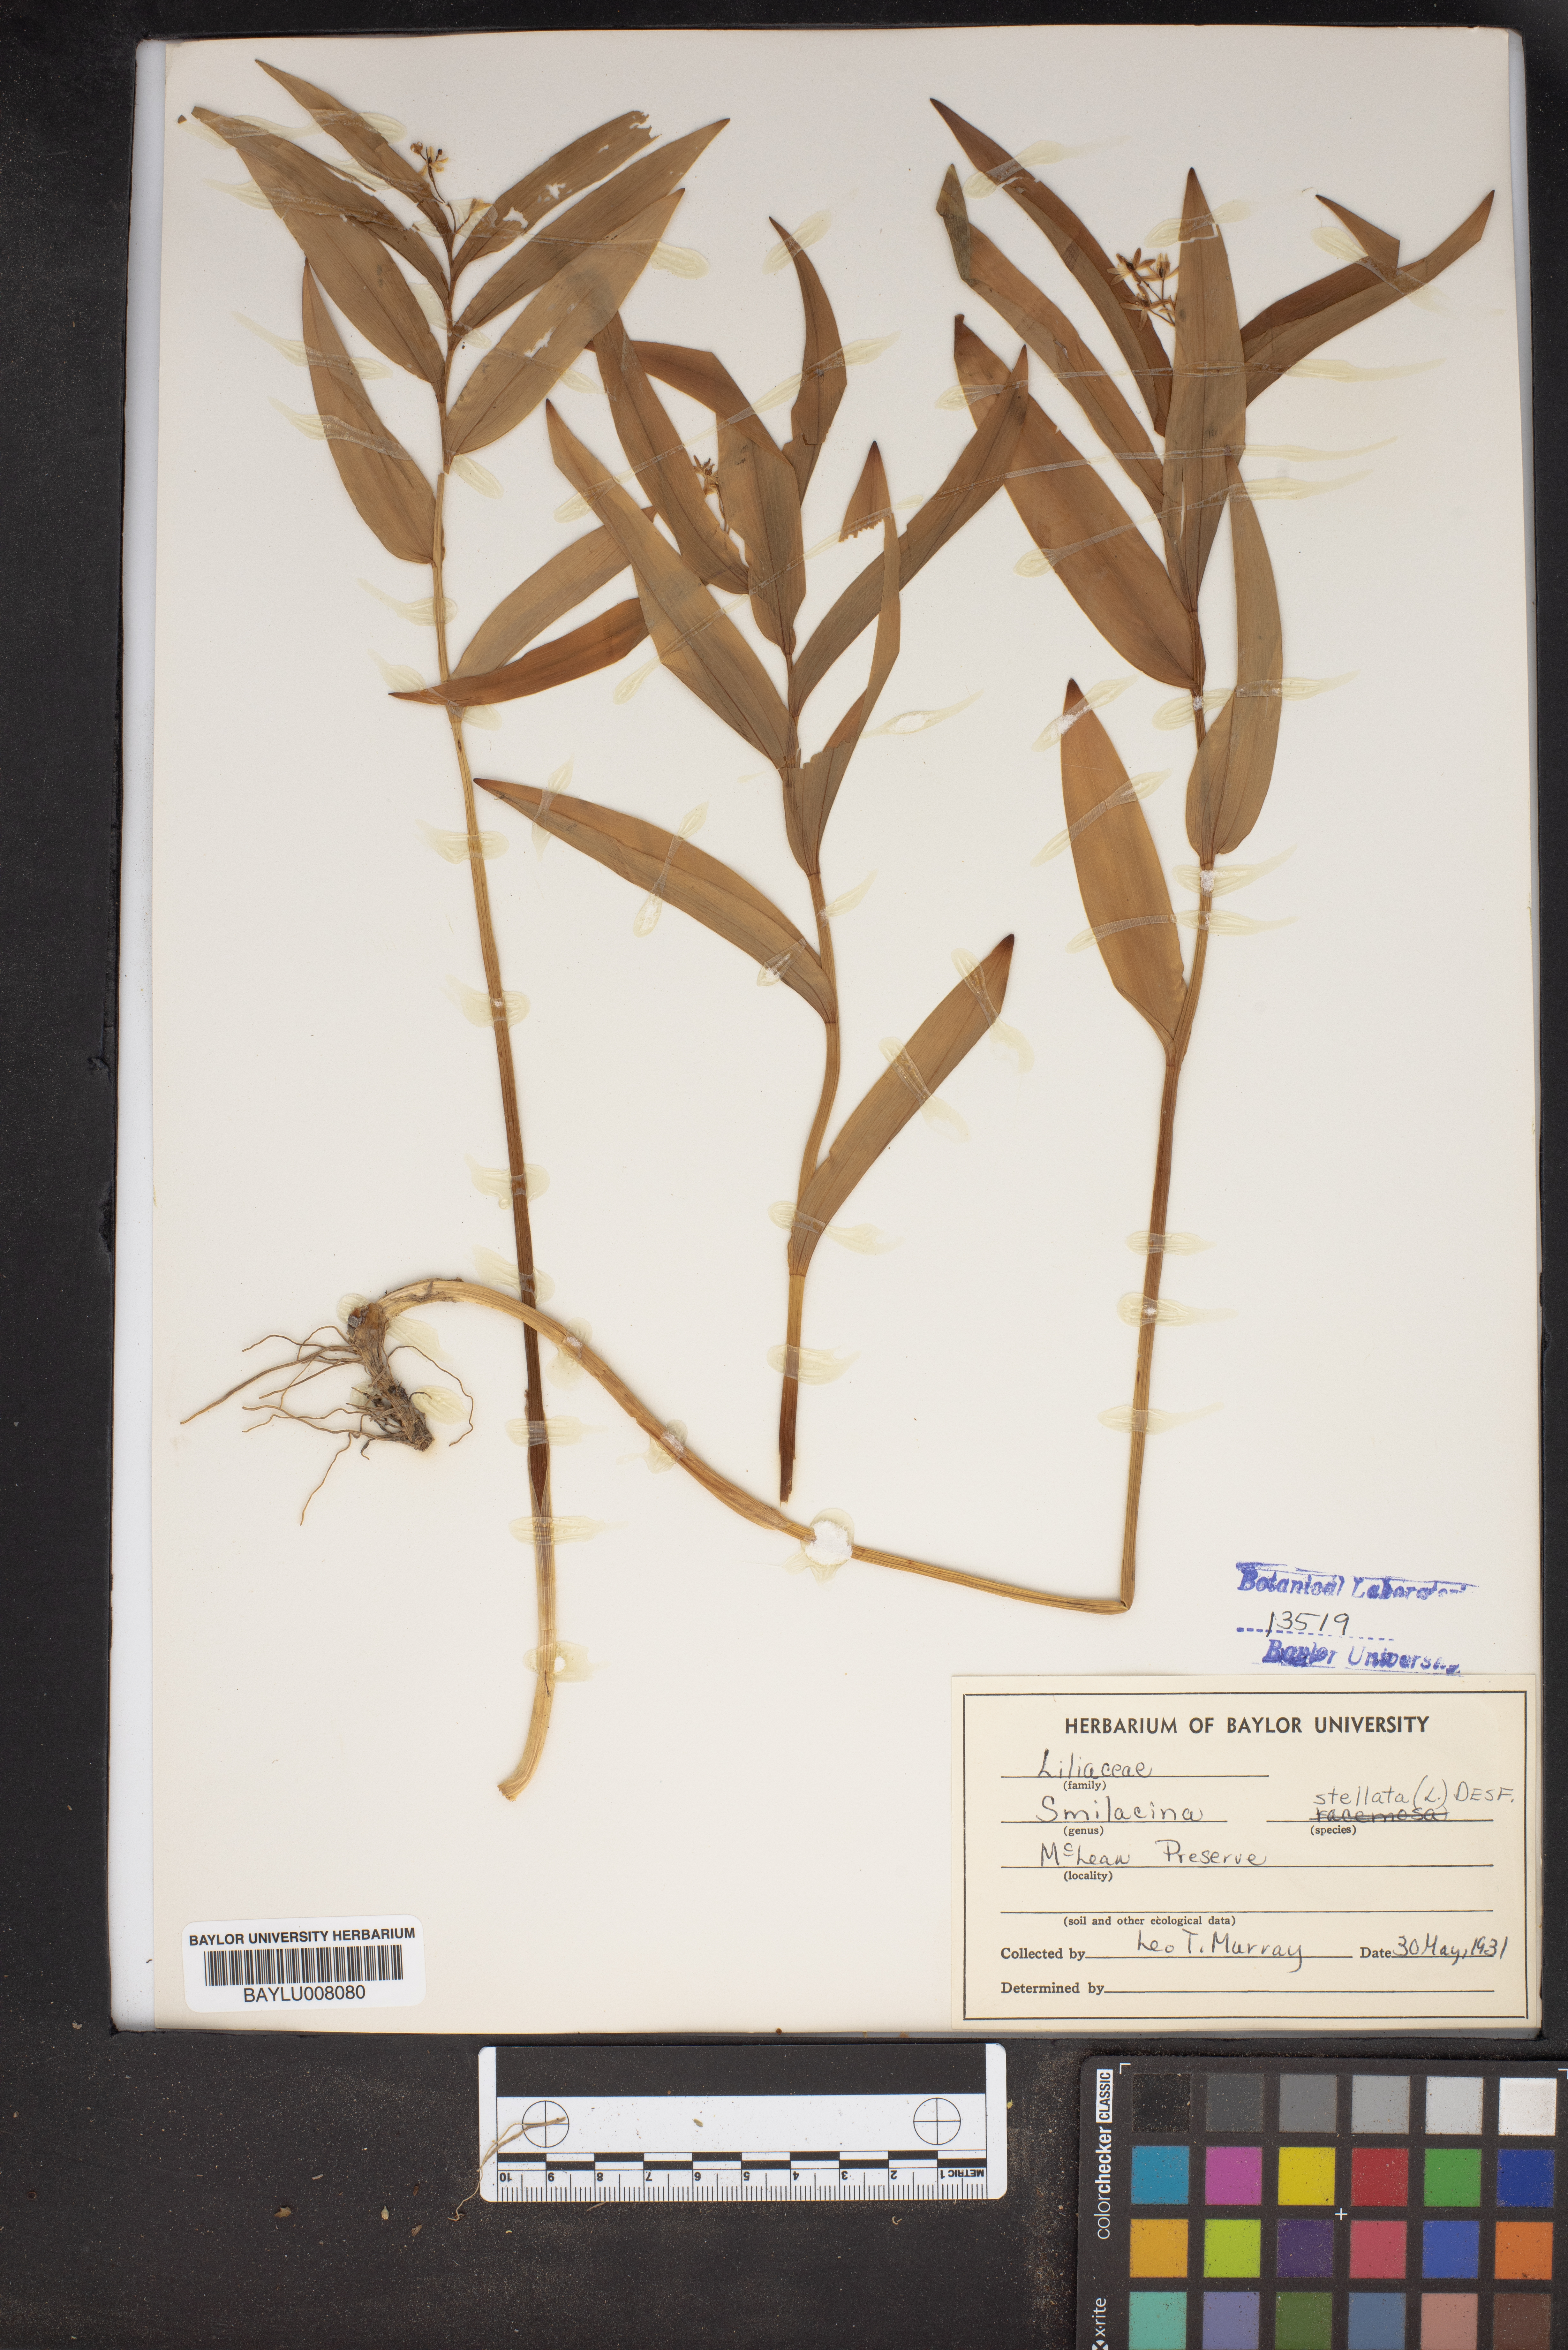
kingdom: Plantae
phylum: Tracheophyta
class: Liliopsida
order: Asparagales
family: Asparagaceae
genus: Maianthemum
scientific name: Maianthemum stellatum
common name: Little false solomon's seal
